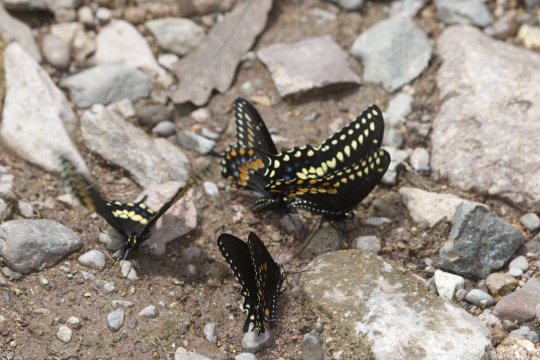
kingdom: Animalia
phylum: Arthropoda
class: Insecta
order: Lepidoptera
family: Papilionidae
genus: Papilio
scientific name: Papilio polyxenes
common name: Black Swallowtail
